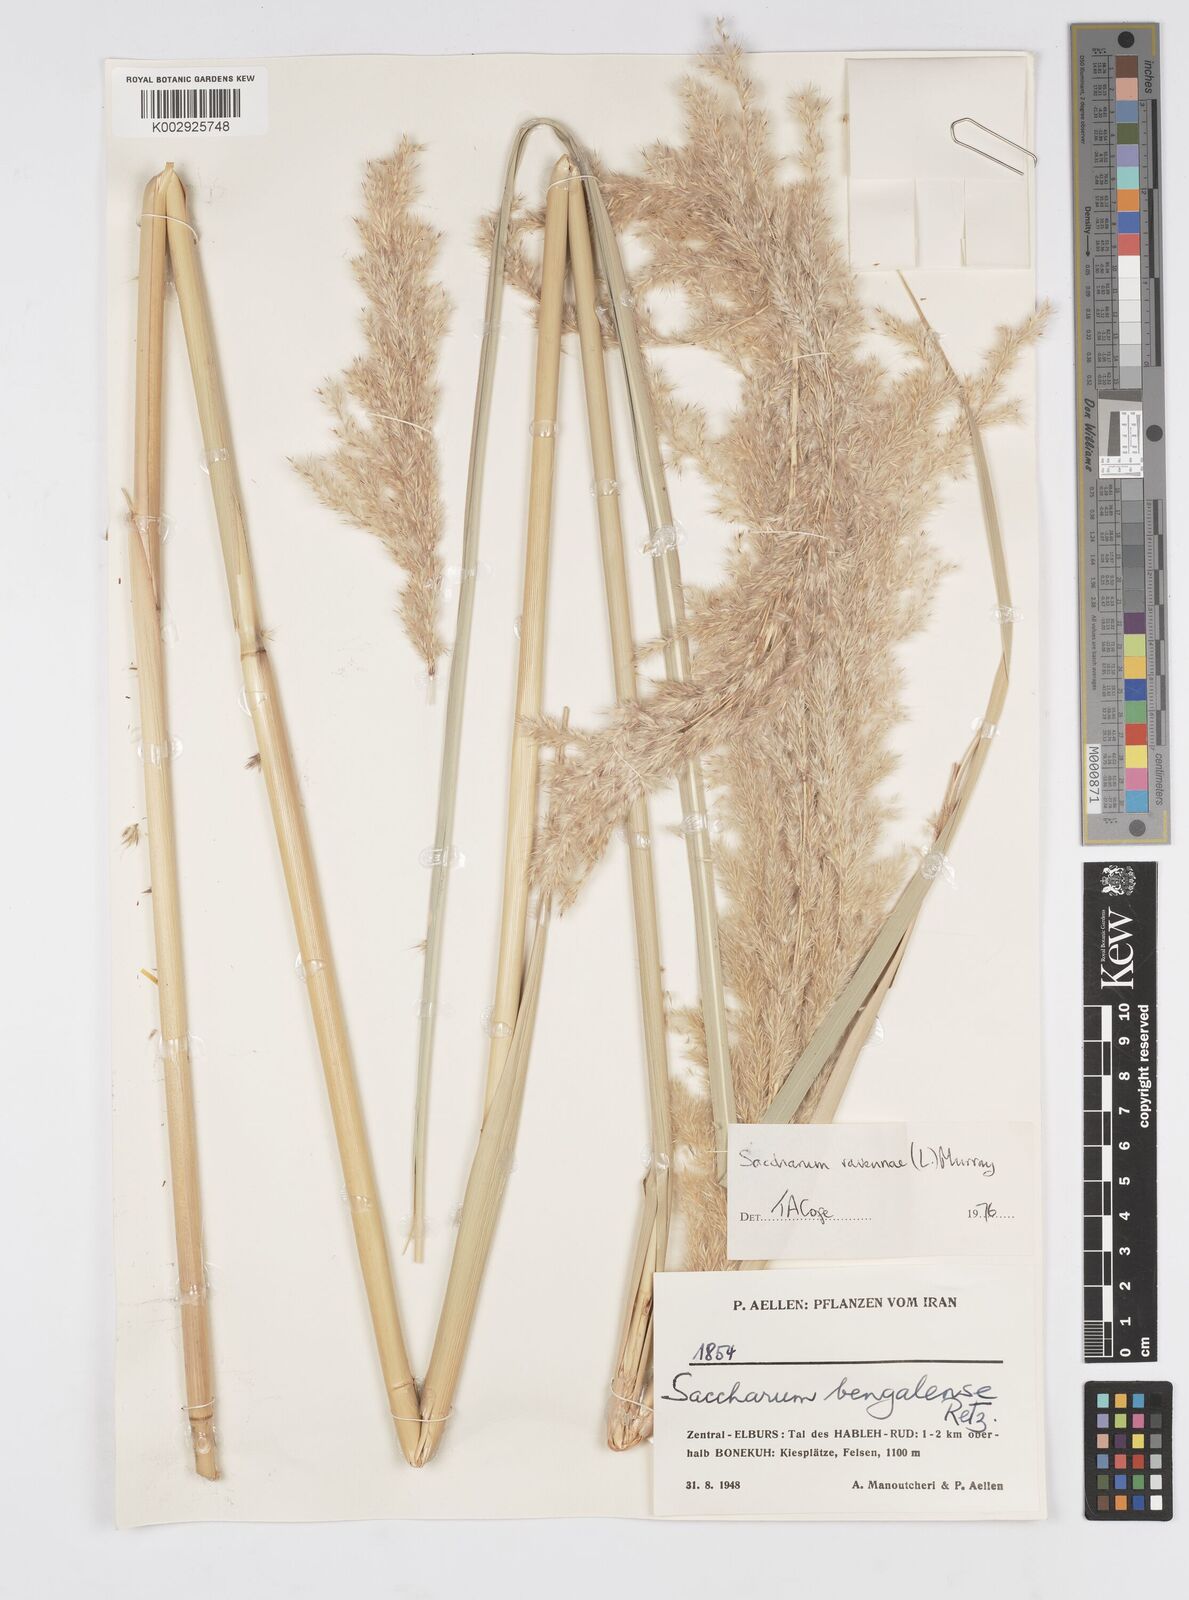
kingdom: Plantae
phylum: Tracheophyta
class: Liliopsida
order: Poales
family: Poaceae
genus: Tripidium
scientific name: Tripidium ravennae
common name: Ravenna grass
